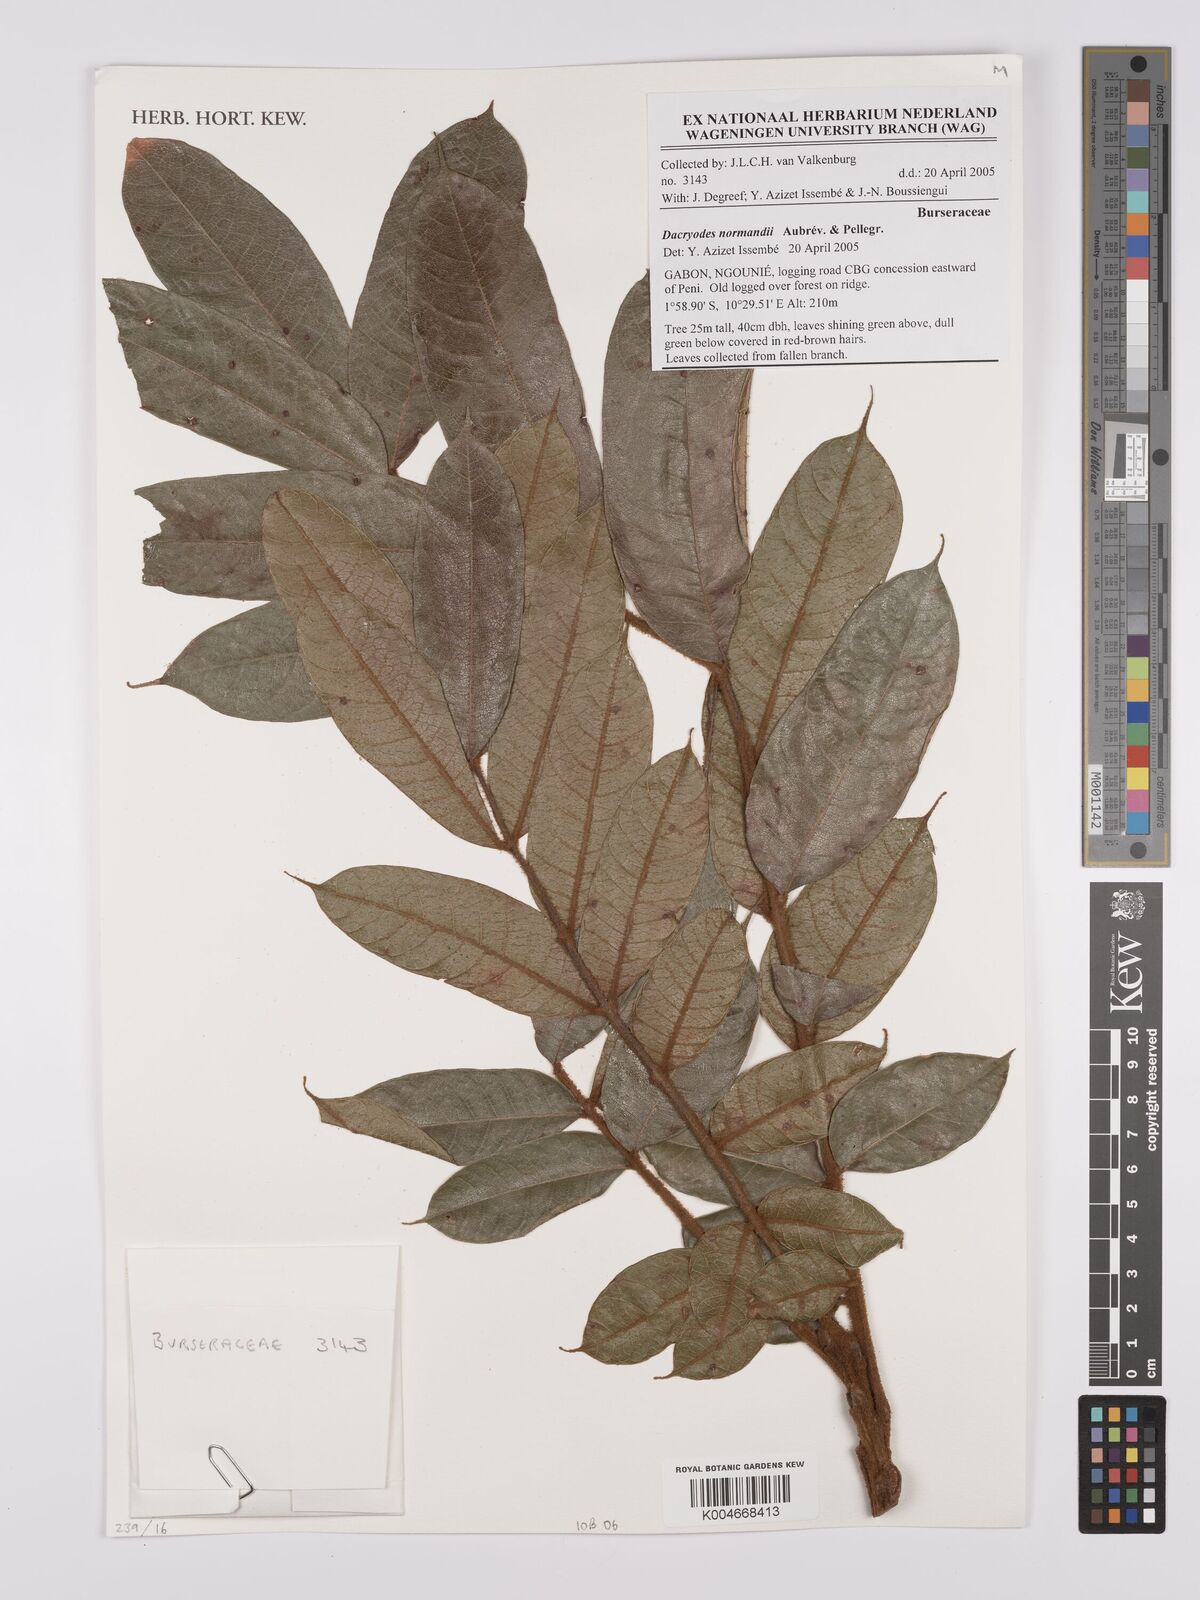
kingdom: Plantae
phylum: Tracheophyta
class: Magnoliopsida
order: Sapindales
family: Burseraceae
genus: Pachylobus
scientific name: Pachylobus normandii
